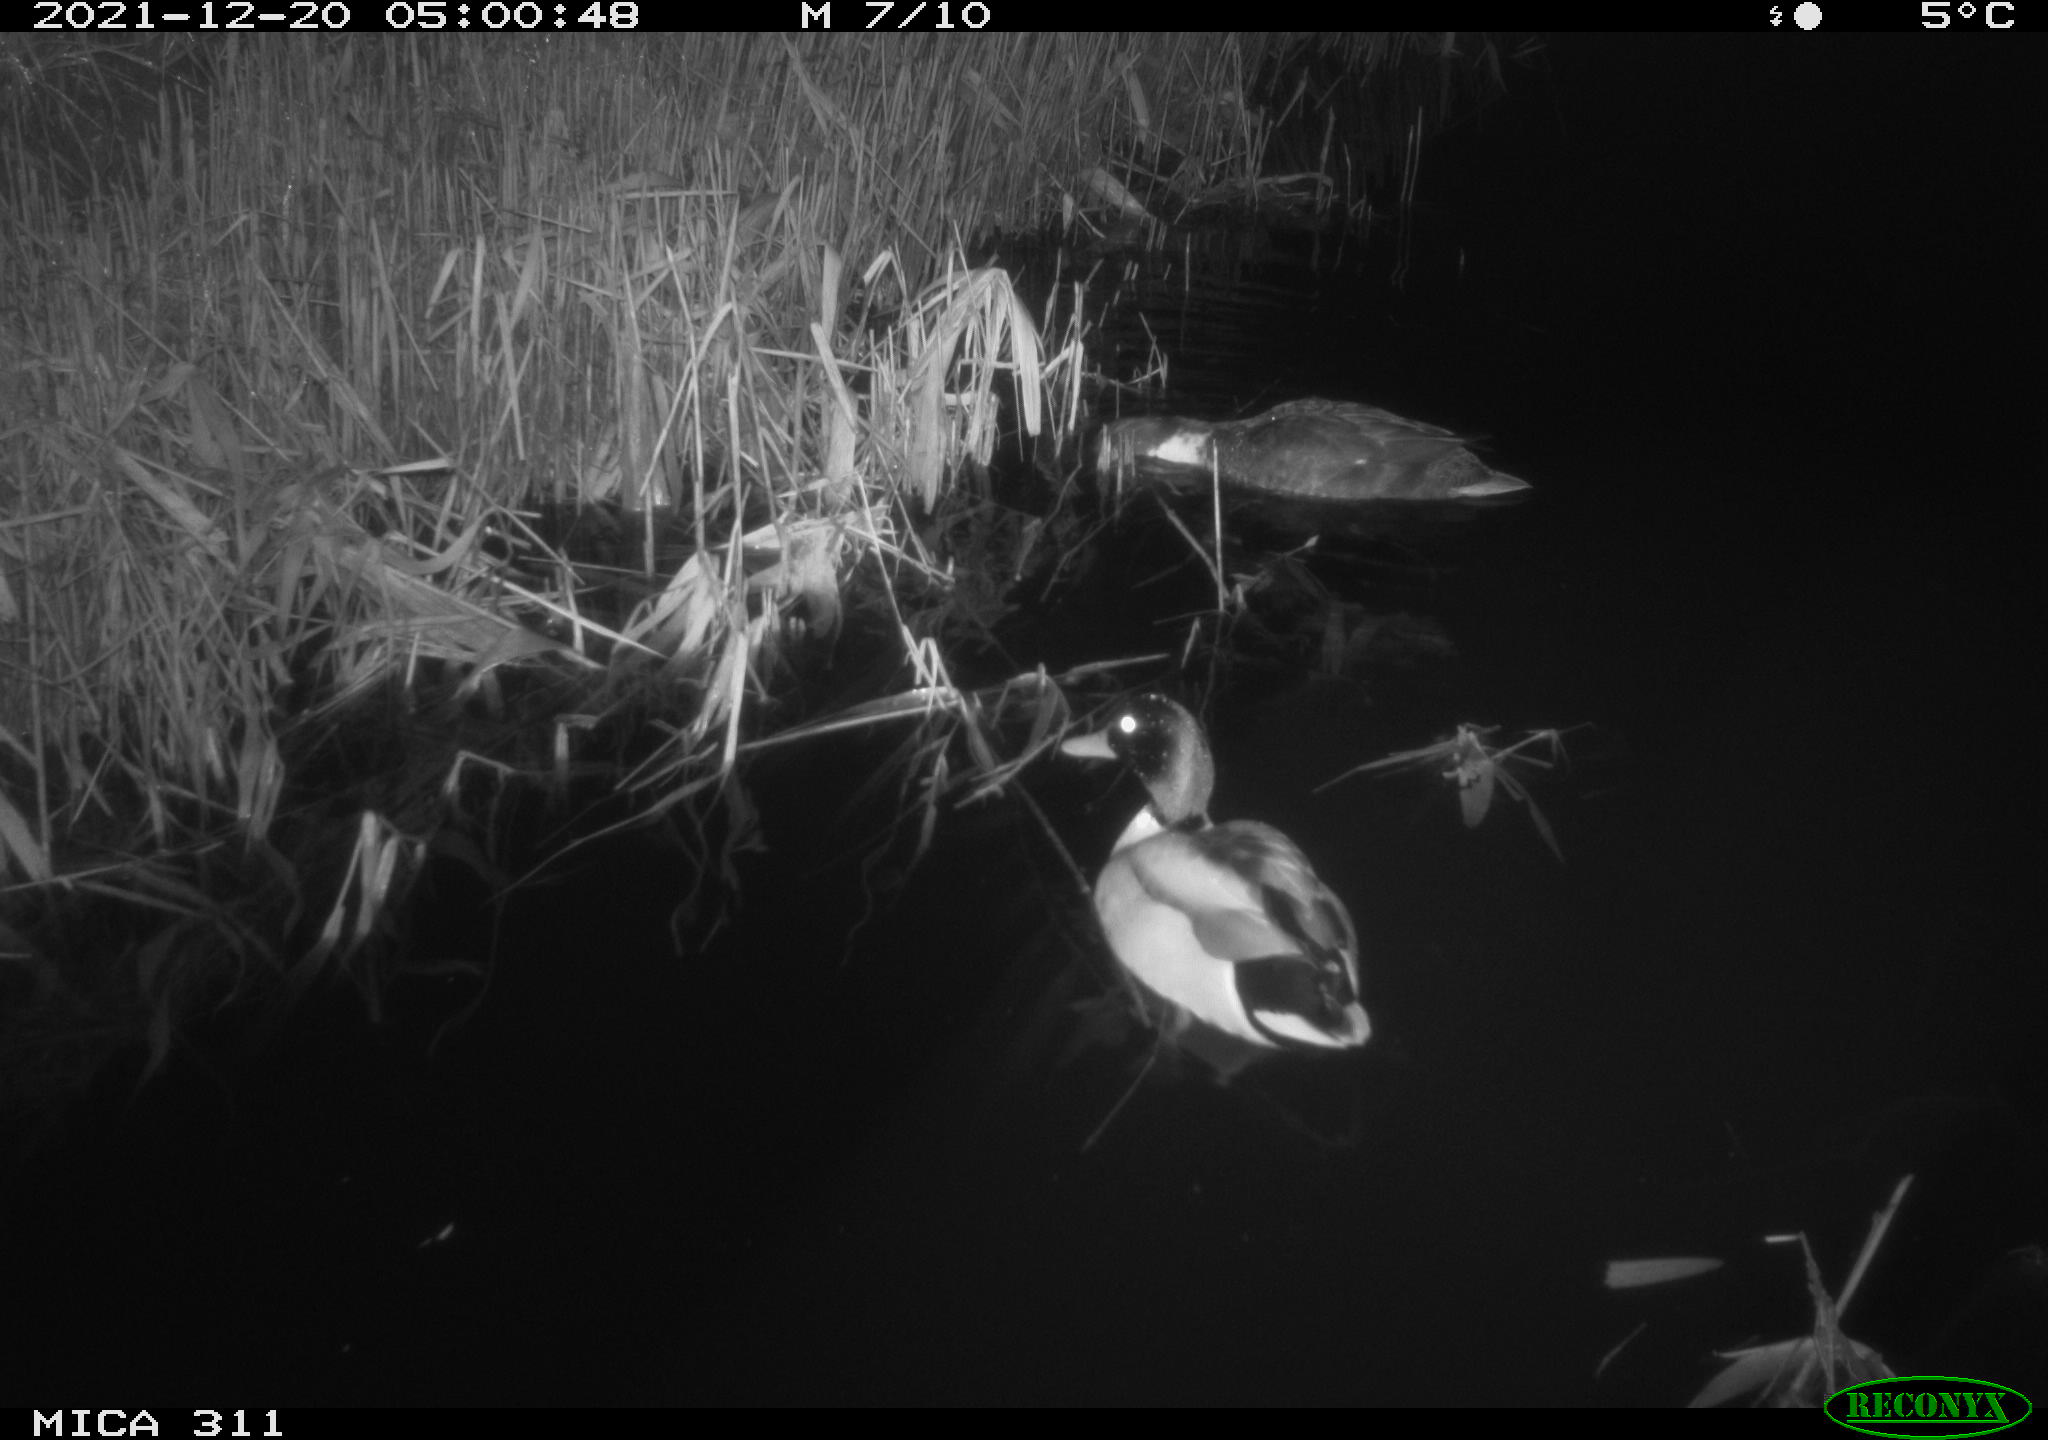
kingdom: Animalia
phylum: Chordata
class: Aves
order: Anseriformes
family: Anatidae
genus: Anas
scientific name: Anas platyrhynchos
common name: Mallard
